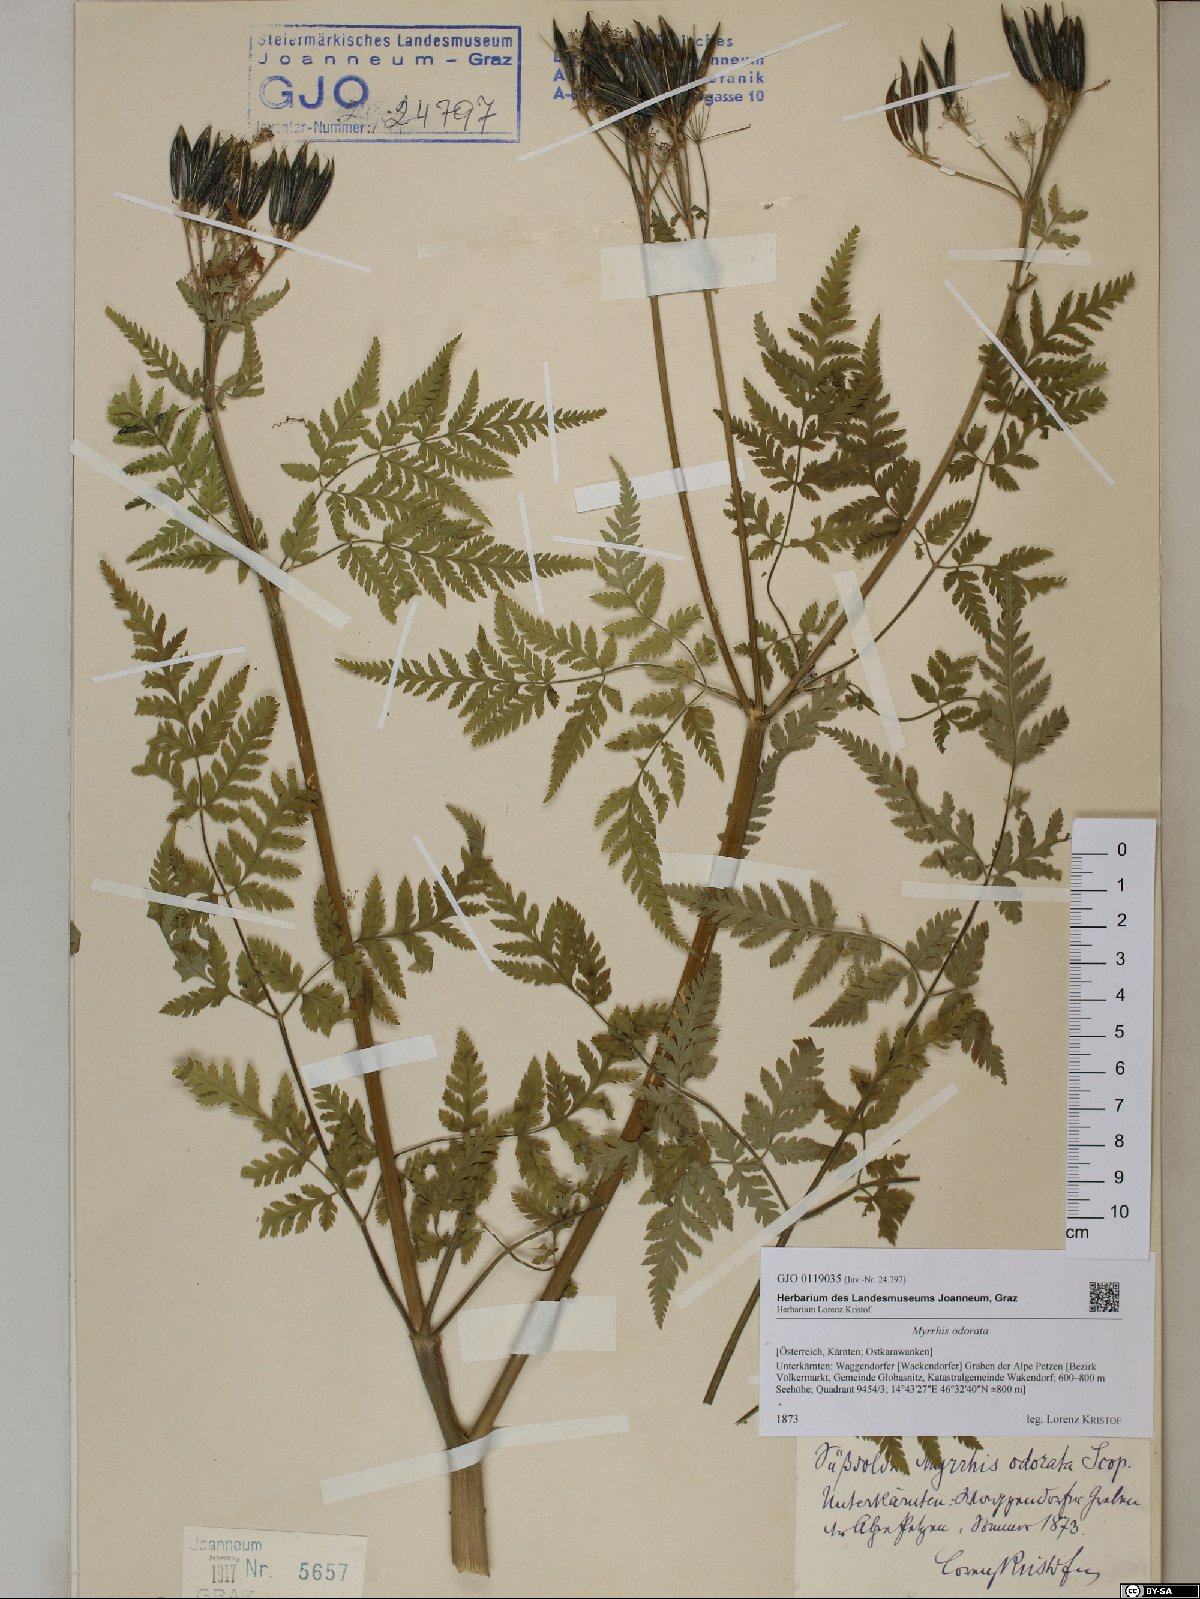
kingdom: Plantae
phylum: Tracheophyta
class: Magnoliopsida
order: Apiales
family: Apiaceae
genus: Myrrhis
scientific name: Myrrhis odorata
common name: Sweet cicely
